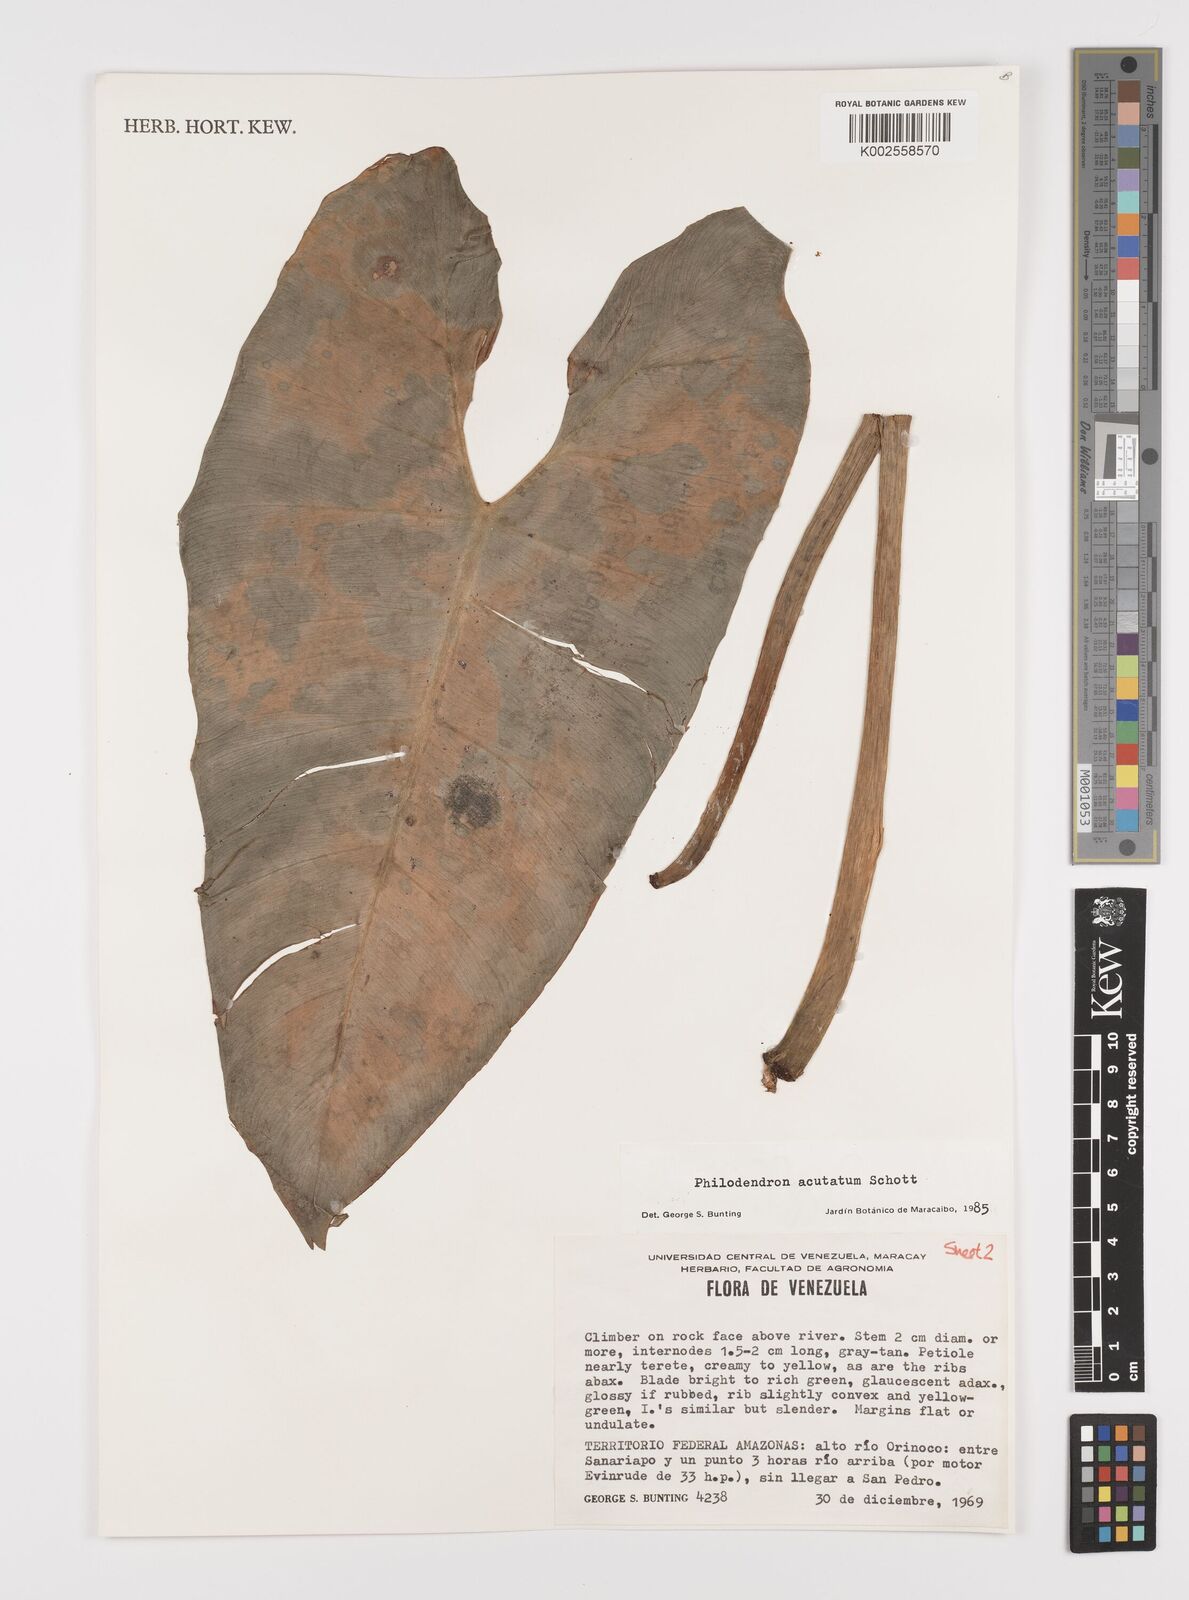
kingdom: Plantae
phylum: Tracheophyta
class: Liliopsida
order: Alismatales
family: Araceae
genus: Philodendron
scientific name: Philodendron quinquenervium
